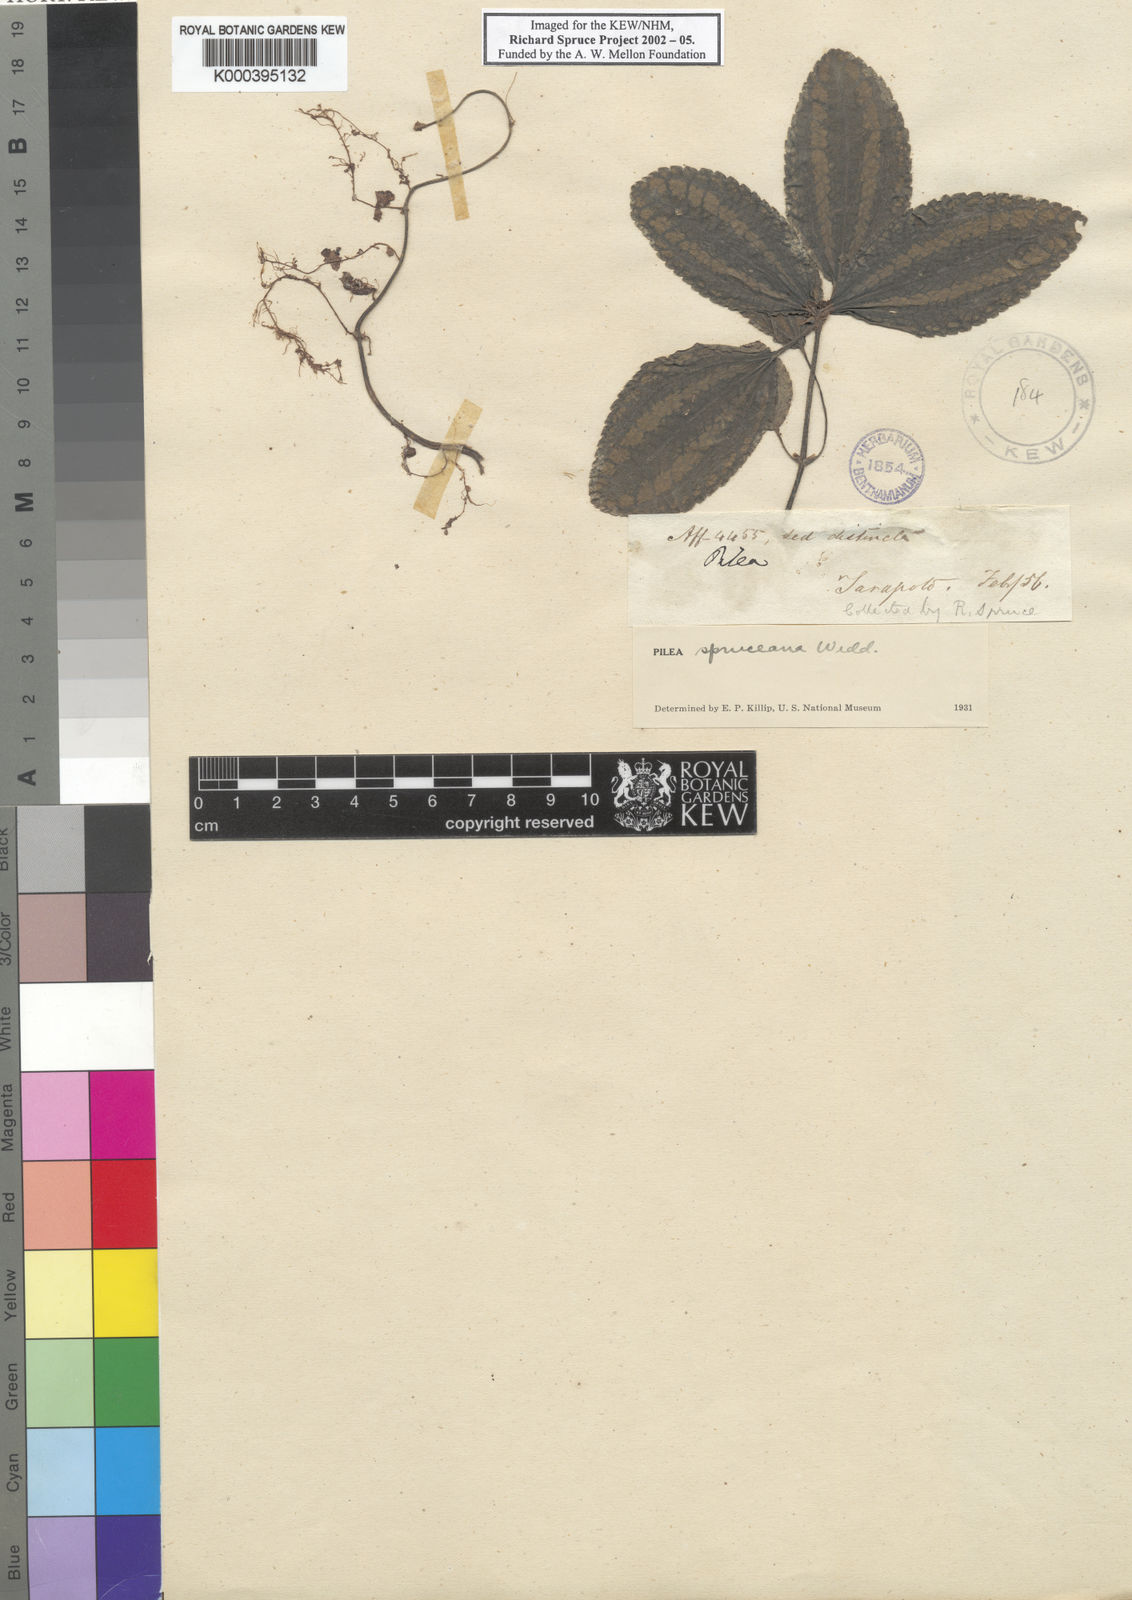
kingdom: Plantae
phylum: Tracheophyta
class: Magnoliopsida
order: Rosales
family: Urticaceae
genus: Pilea
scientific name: Pilea spruceana
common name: Clearweed
